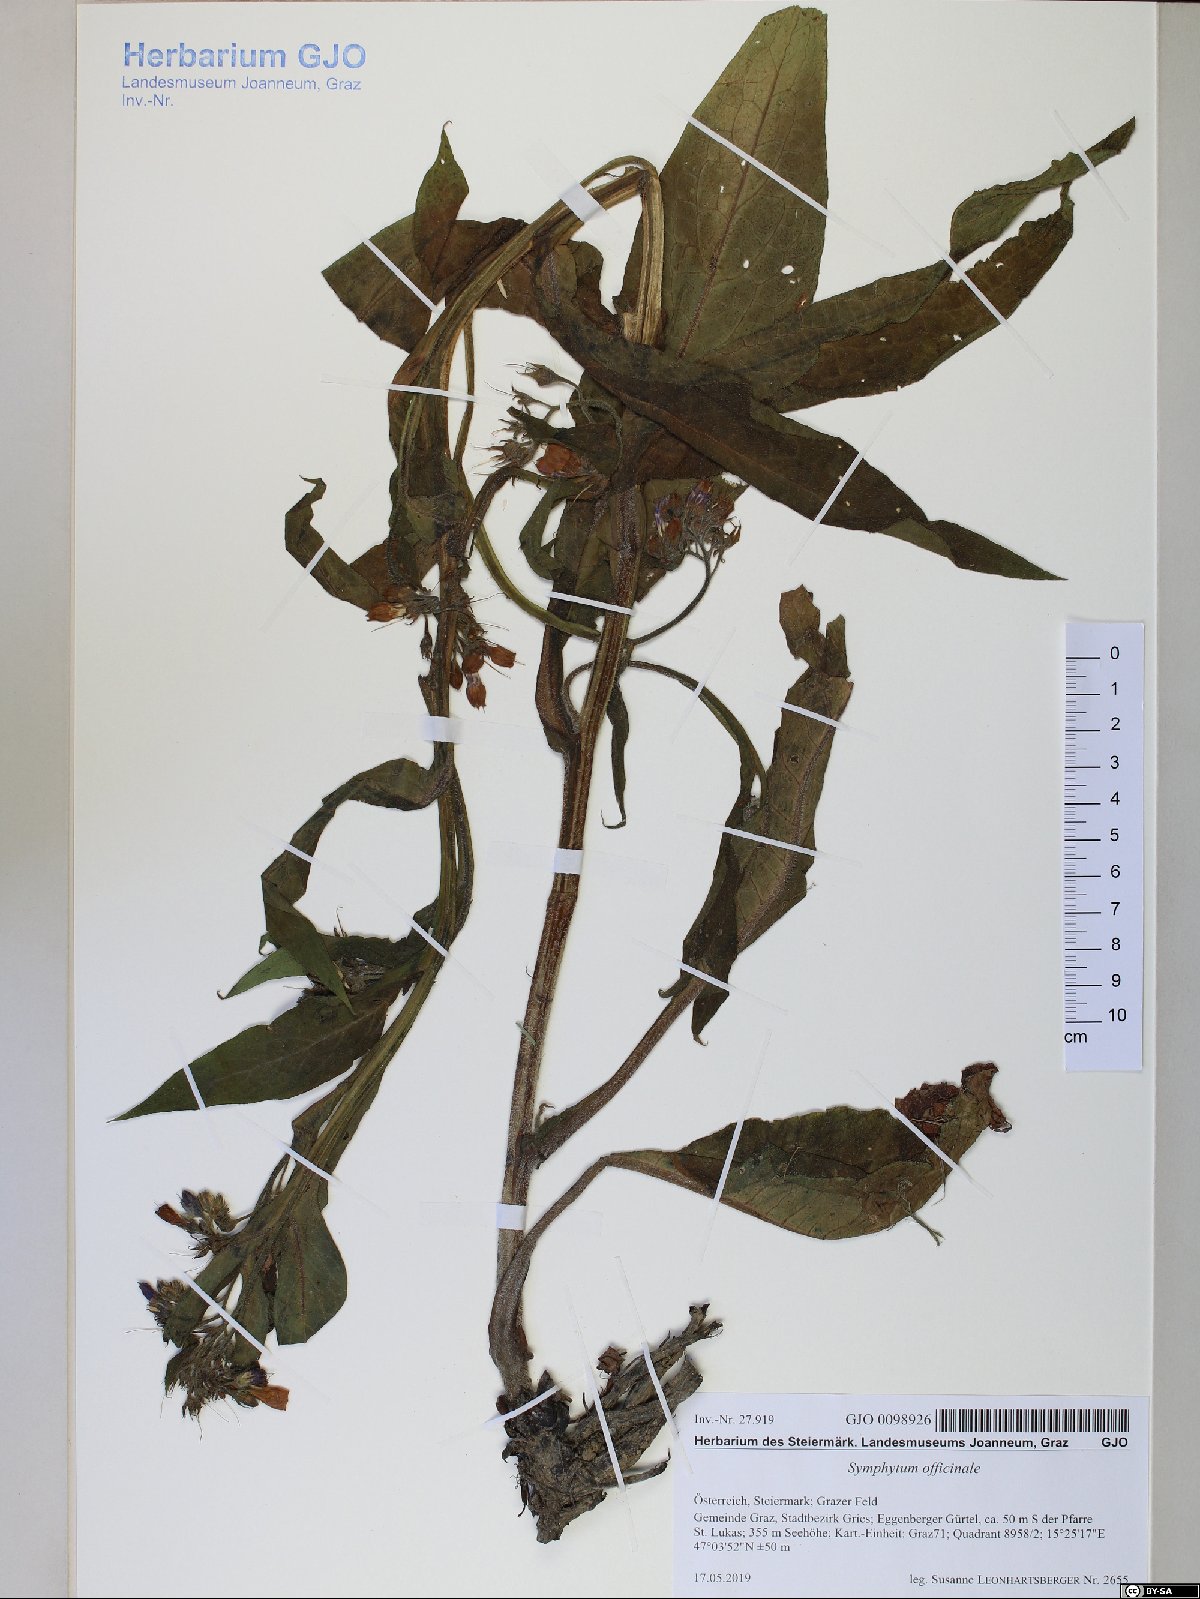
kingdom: Plantae
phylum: Tracheophyta
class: Magnoliopsida
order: Boraginales
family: Boraginaceae
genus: Symphytum
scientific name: Symphytum officinale
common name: Common comfrey
